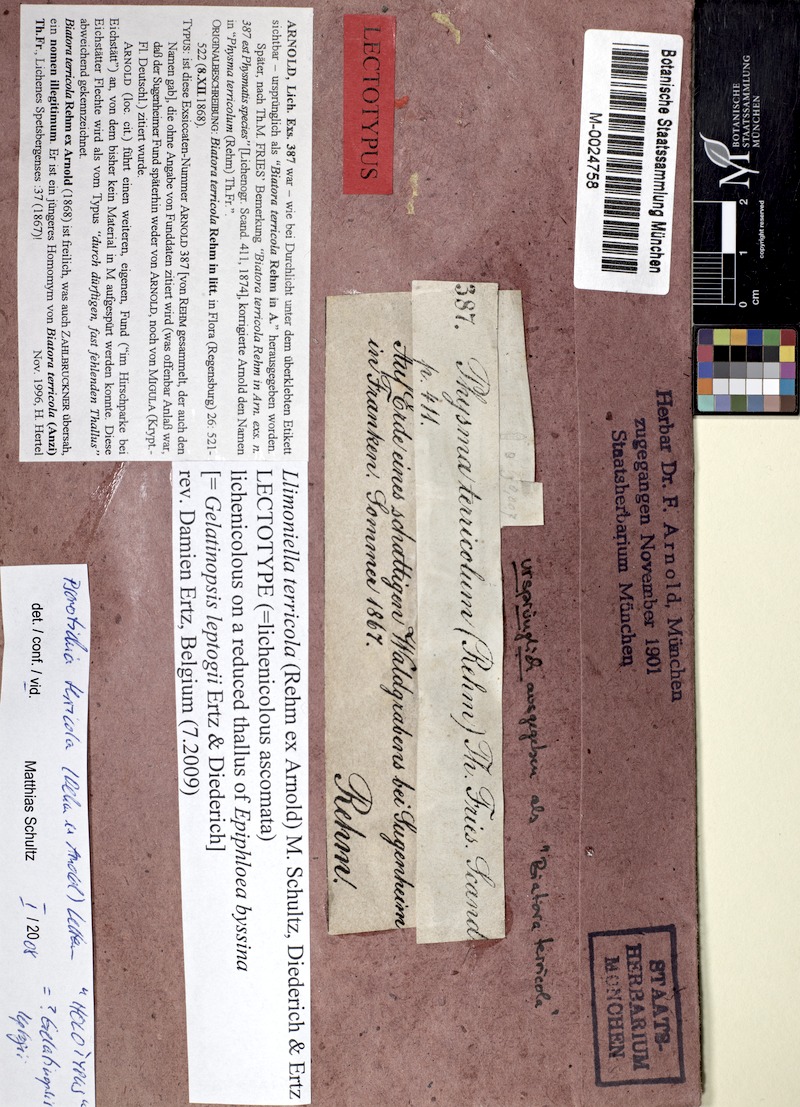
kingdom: Fungi
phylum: Ascomycota
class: Leotiomycetes
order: Helotiales
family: Cordieritidaceae
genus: Llimoniella
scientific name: Llimoniella terricola
